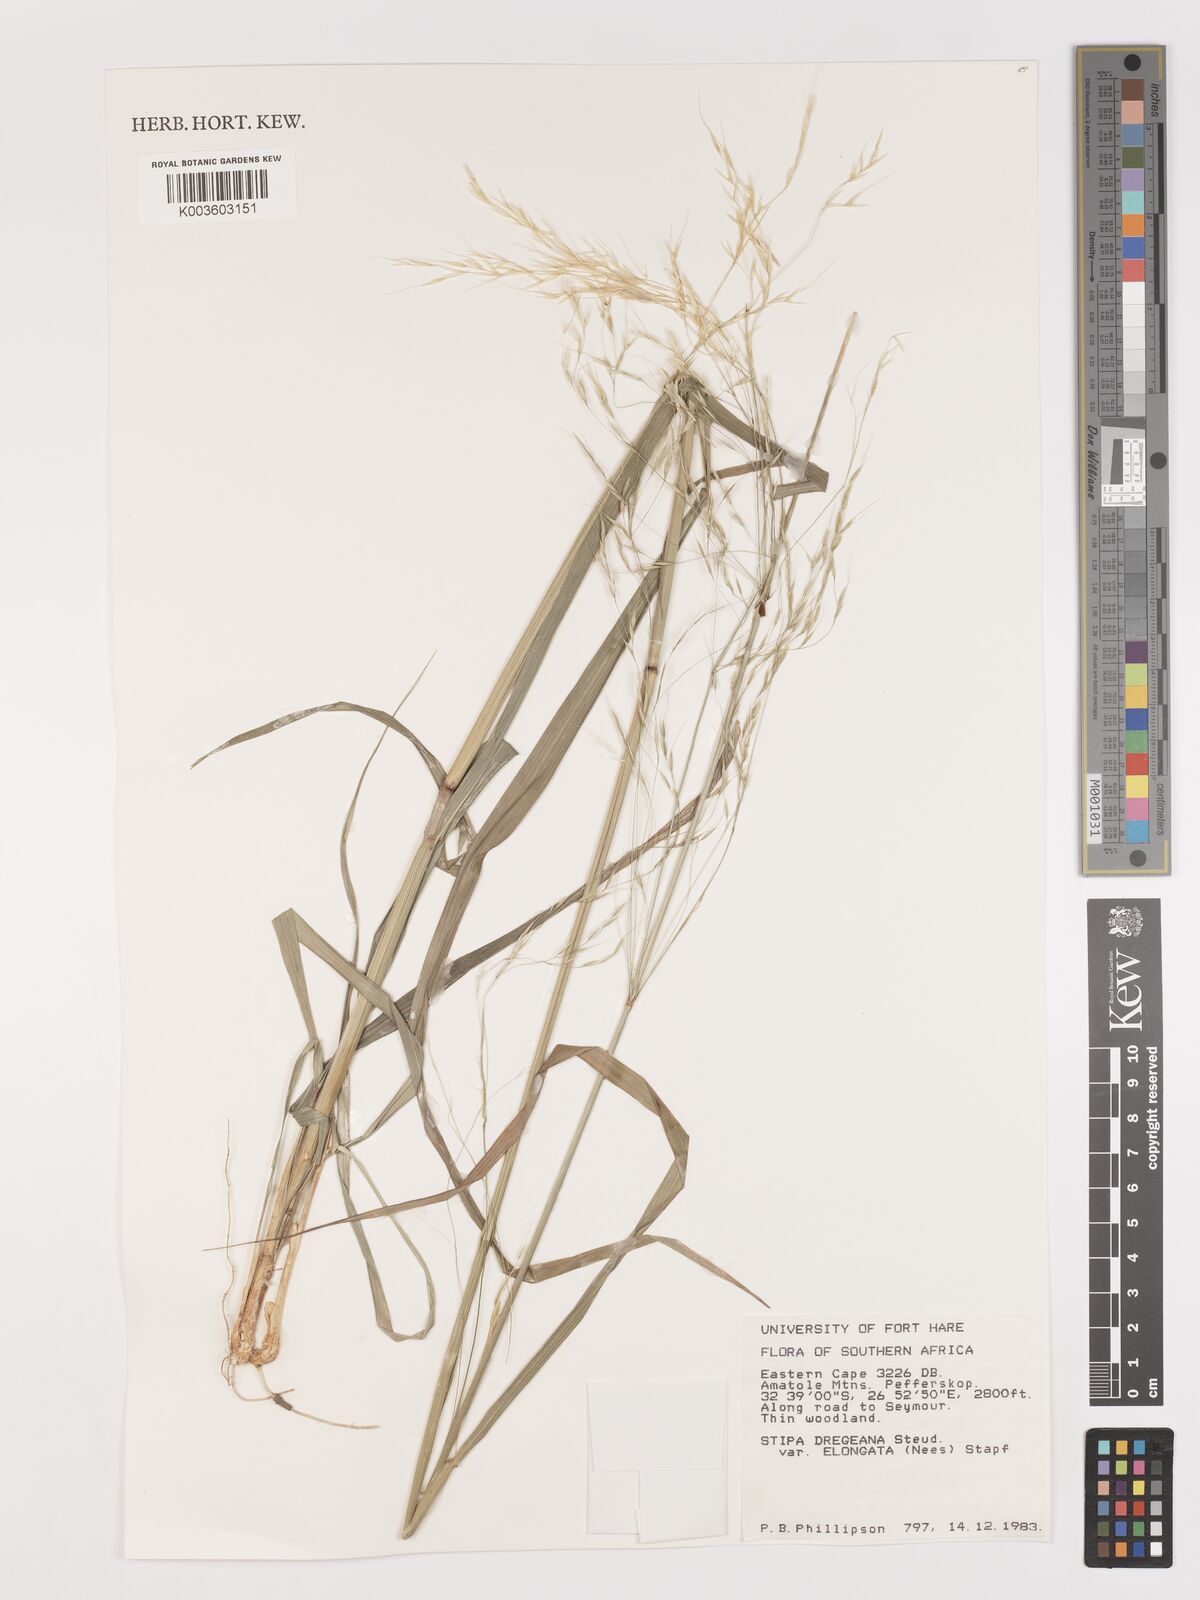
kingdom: Plantae
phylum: Tracheophyta
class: Liliopsida
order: Poales
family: Poaceae
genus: Stipa
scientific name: Stipa dregeana
